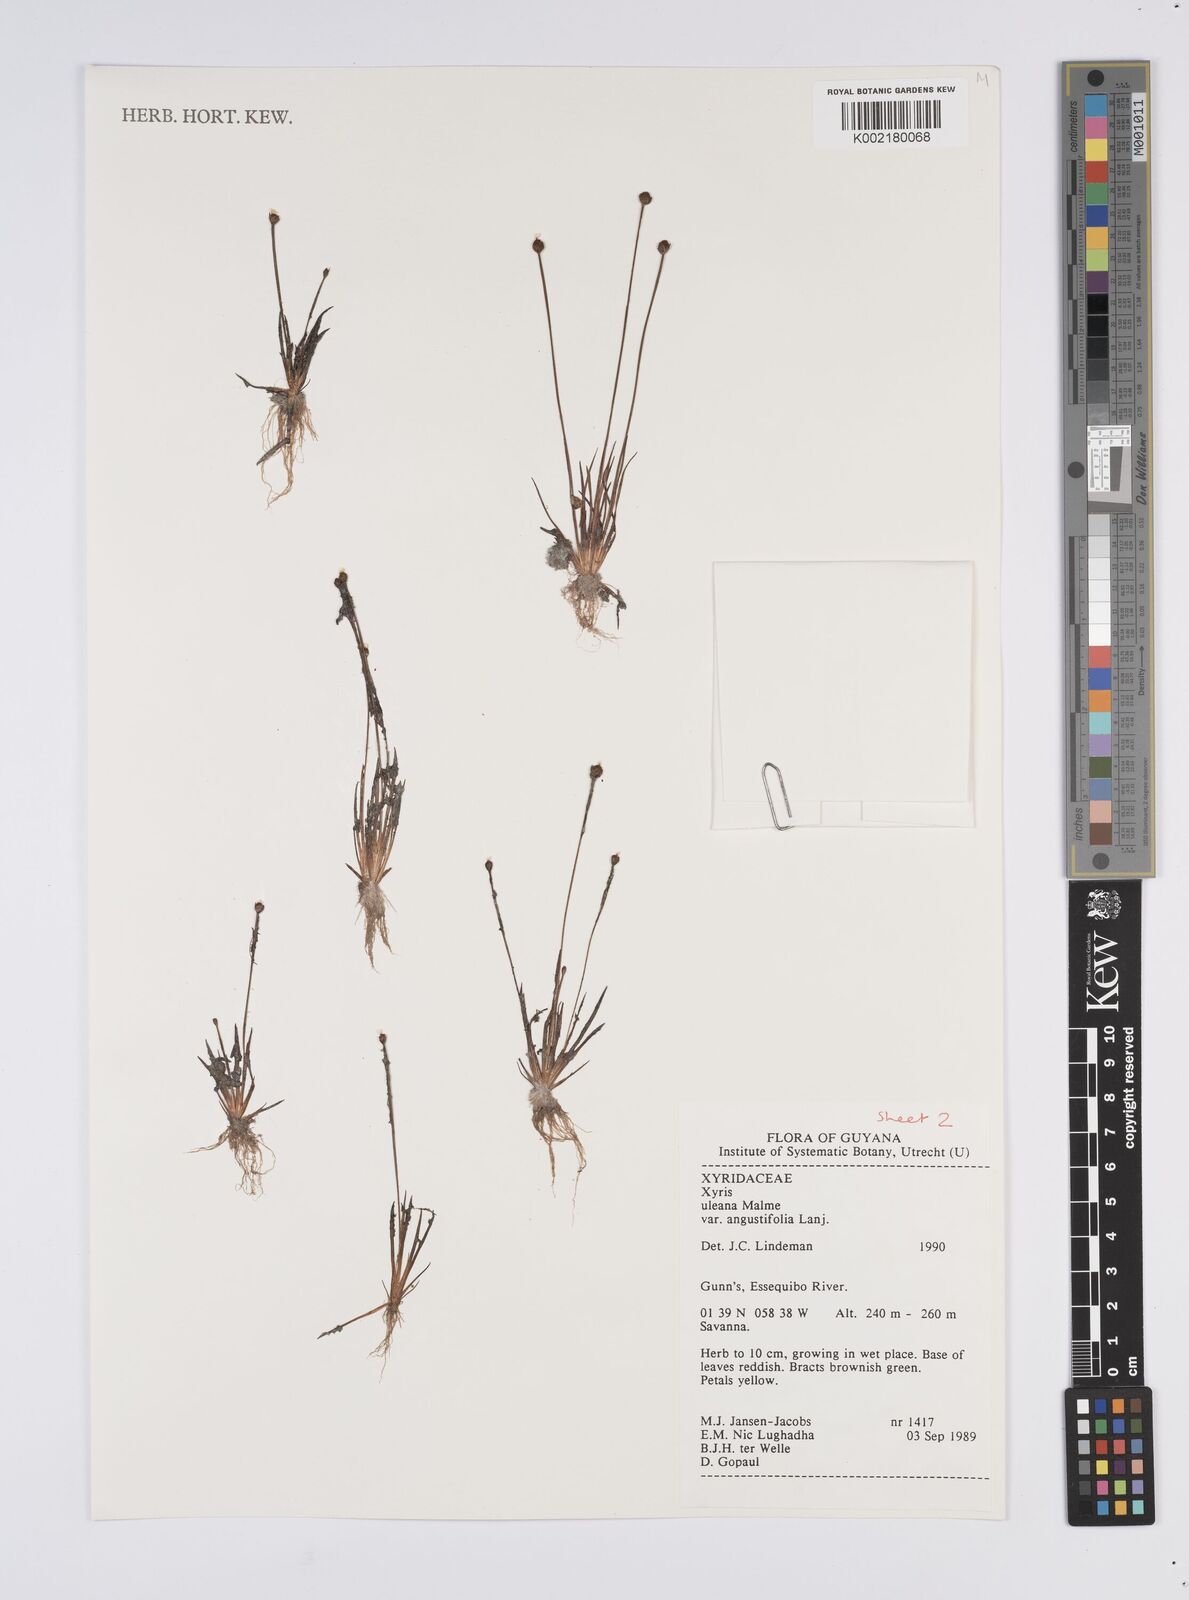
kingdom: Plantae
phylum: Tracheophyta
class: Liliopsida
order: Poales
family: Xyridaceae
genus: Xyris
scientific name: Xyris uleana
